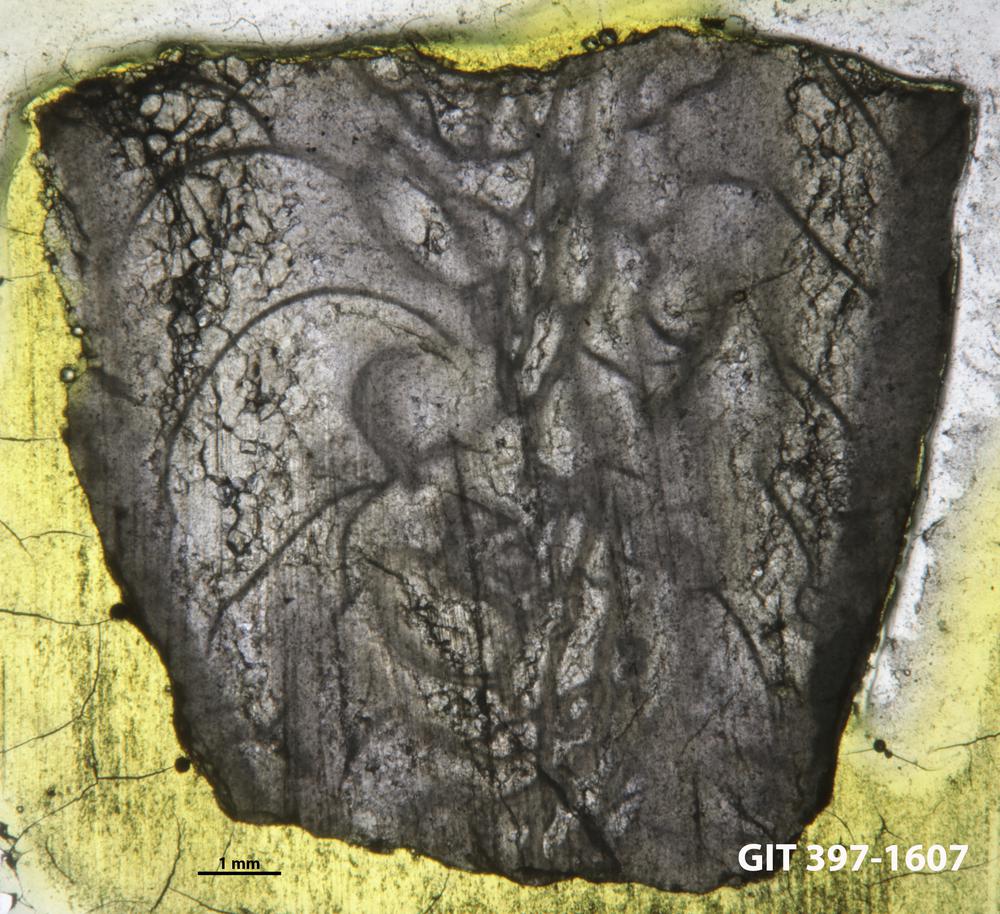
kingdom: Animalia
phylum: Cnidaria
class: Anthozoa
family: Streptelasmatidae
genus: Brachyelasma
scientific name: Brachyelasma estonicum
